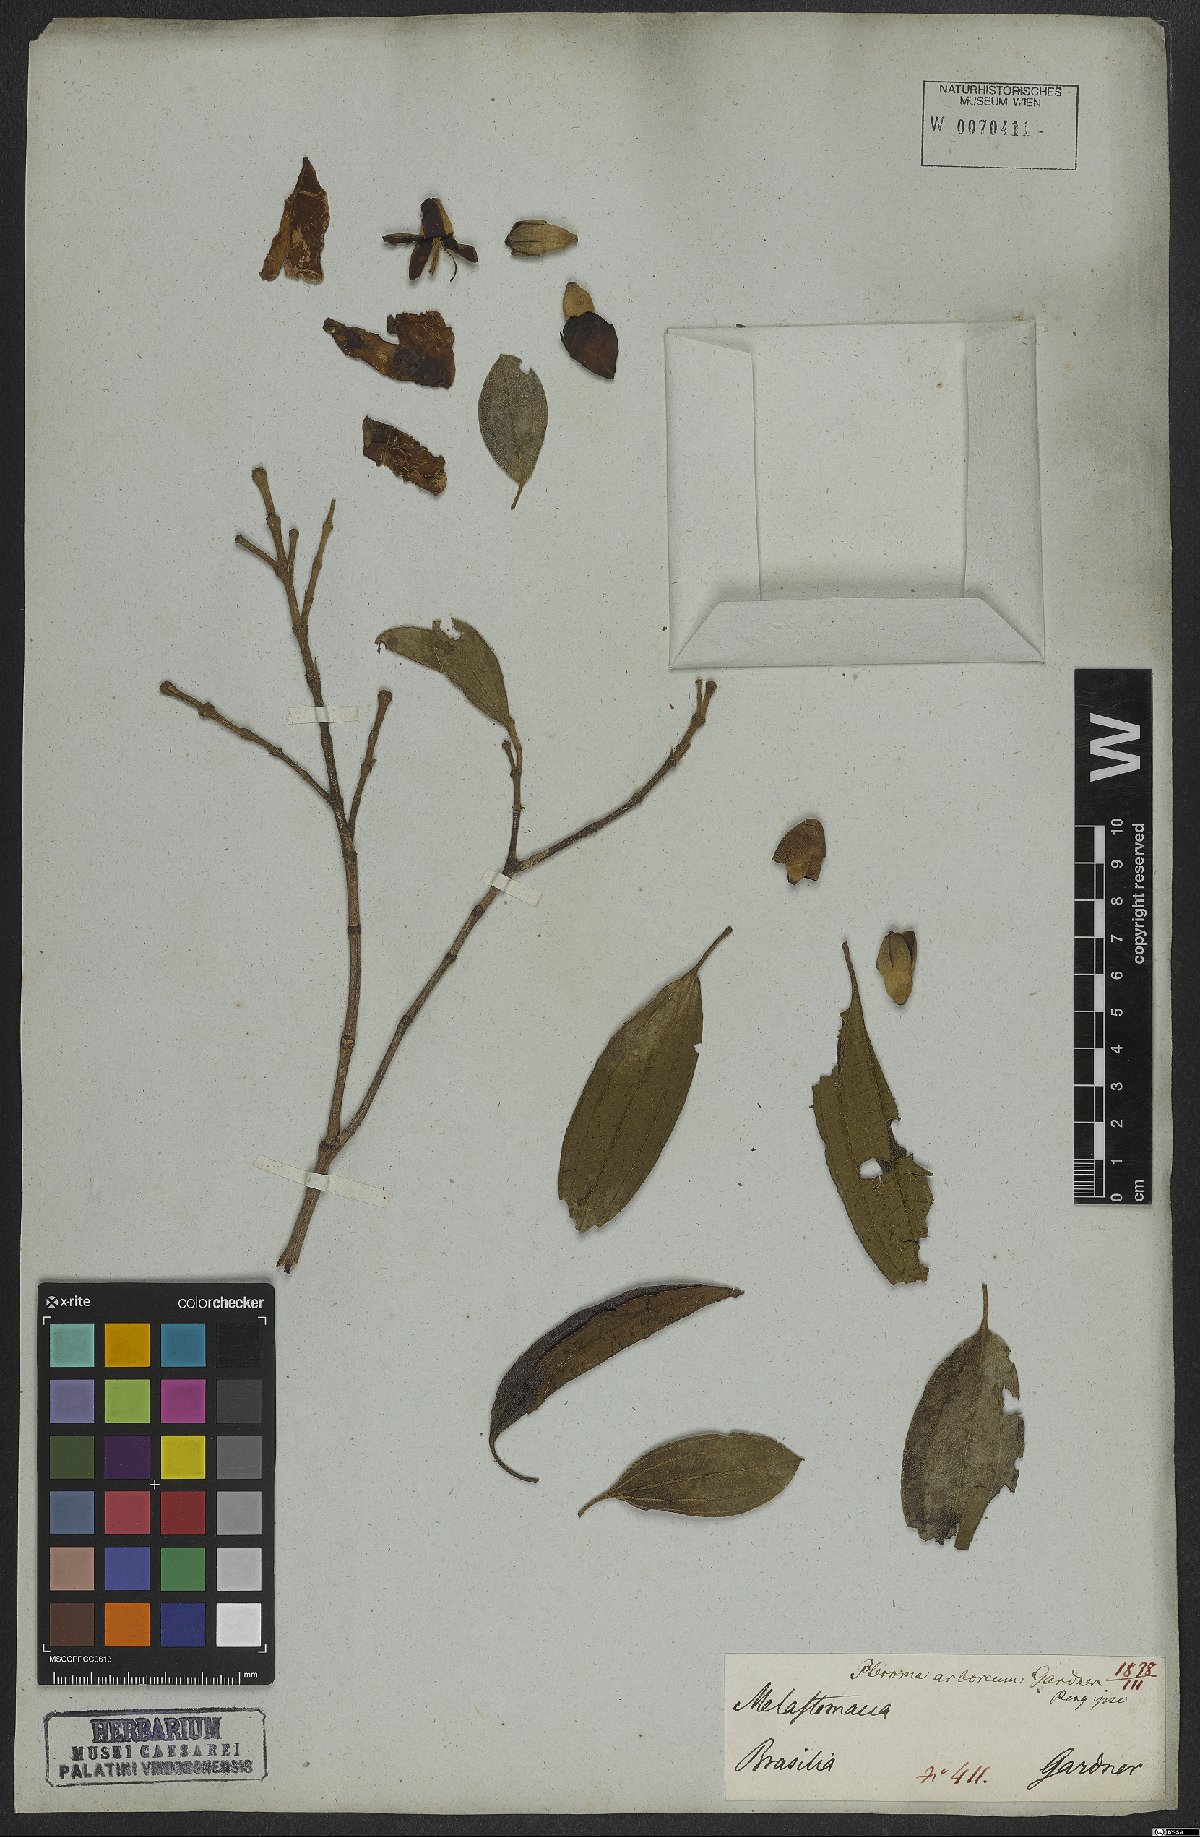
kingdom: Plantae
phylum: Tracheophyta
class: Magnoliopsida
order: Myrtales
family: Melastomataceae
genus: Pleroma
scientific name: Pleroma arboreum
